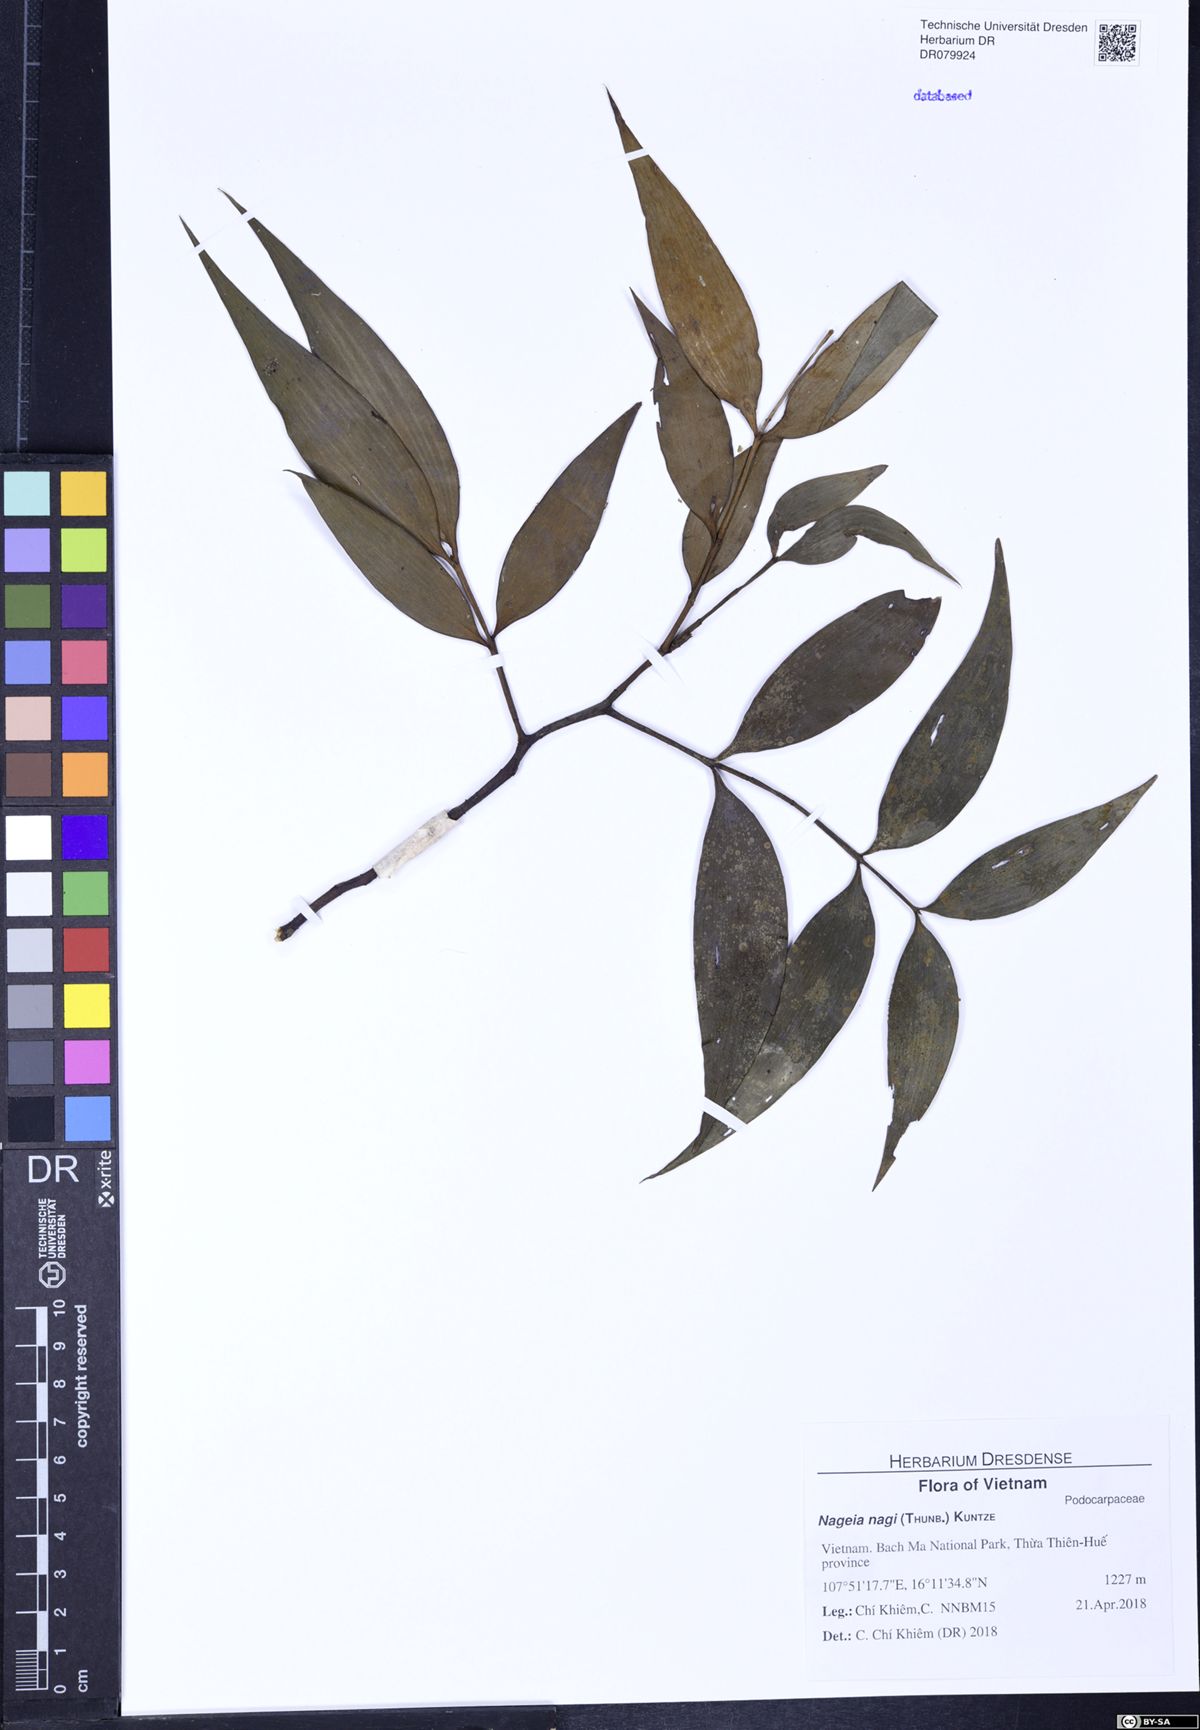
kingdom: Plantae
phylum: Tracheophyta
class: Pinopsida
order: Pinales
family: Podocarpaceae
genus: Nageia
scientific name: Nageia nagi
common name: Kaphal
